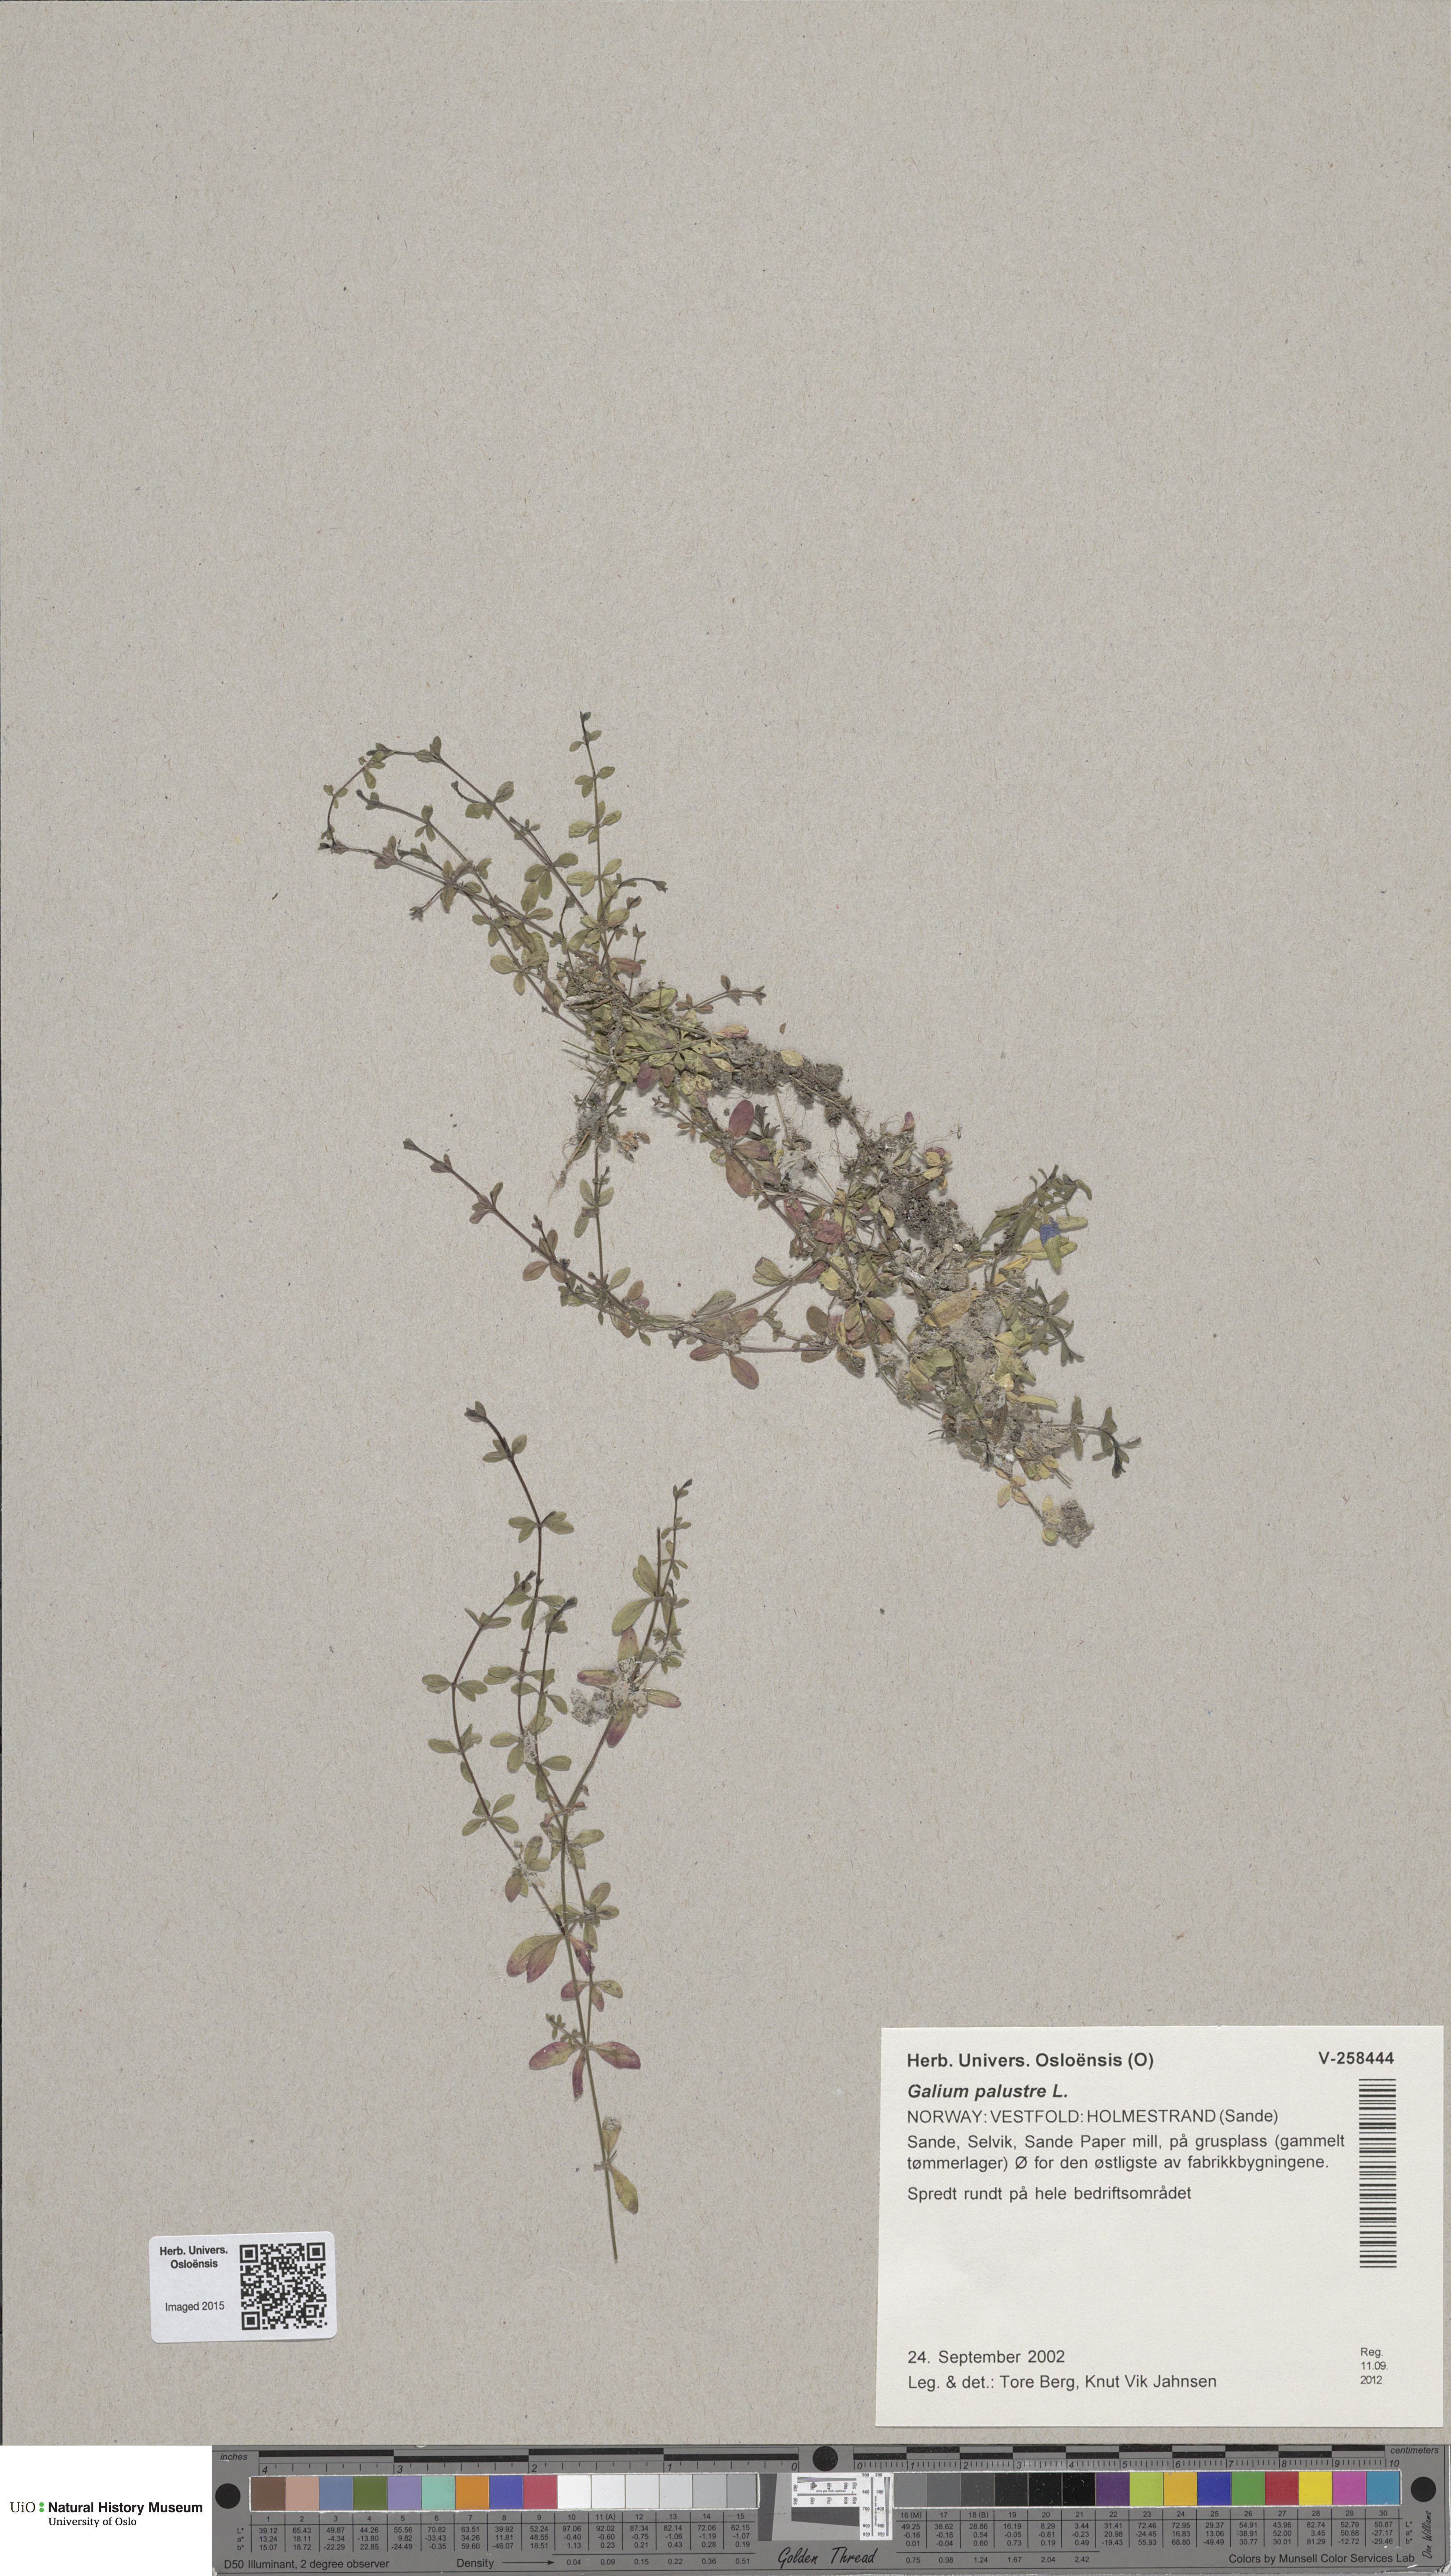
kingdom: Plantae
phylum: Tracheophyta
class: Magnoliopsida
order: Gentianales
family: Rubiaceae
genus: Galium
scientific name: Galium palustre
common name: Common marsh-bedstraw
